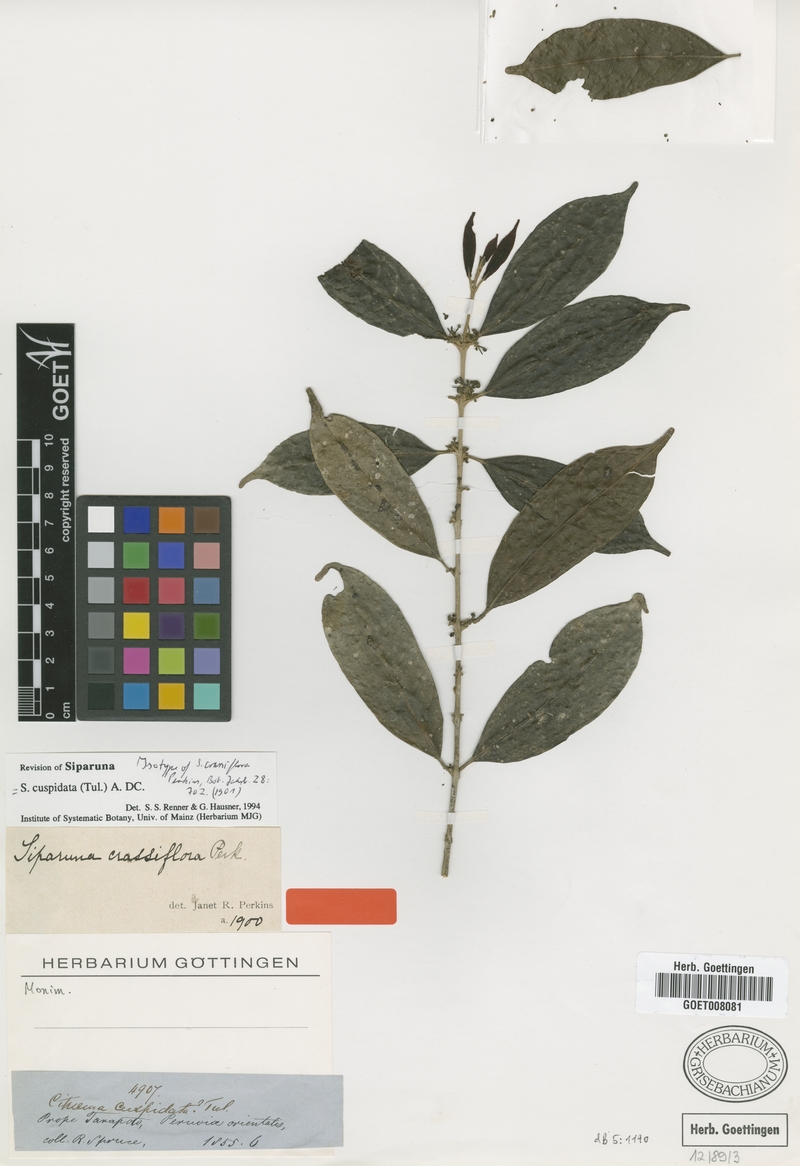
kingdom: Plantae
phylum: Tracheophyta
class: Magnoliopsida
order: Laurales
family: Siparunaceae
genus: Siparuna
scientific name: Siparuna cuspidata
